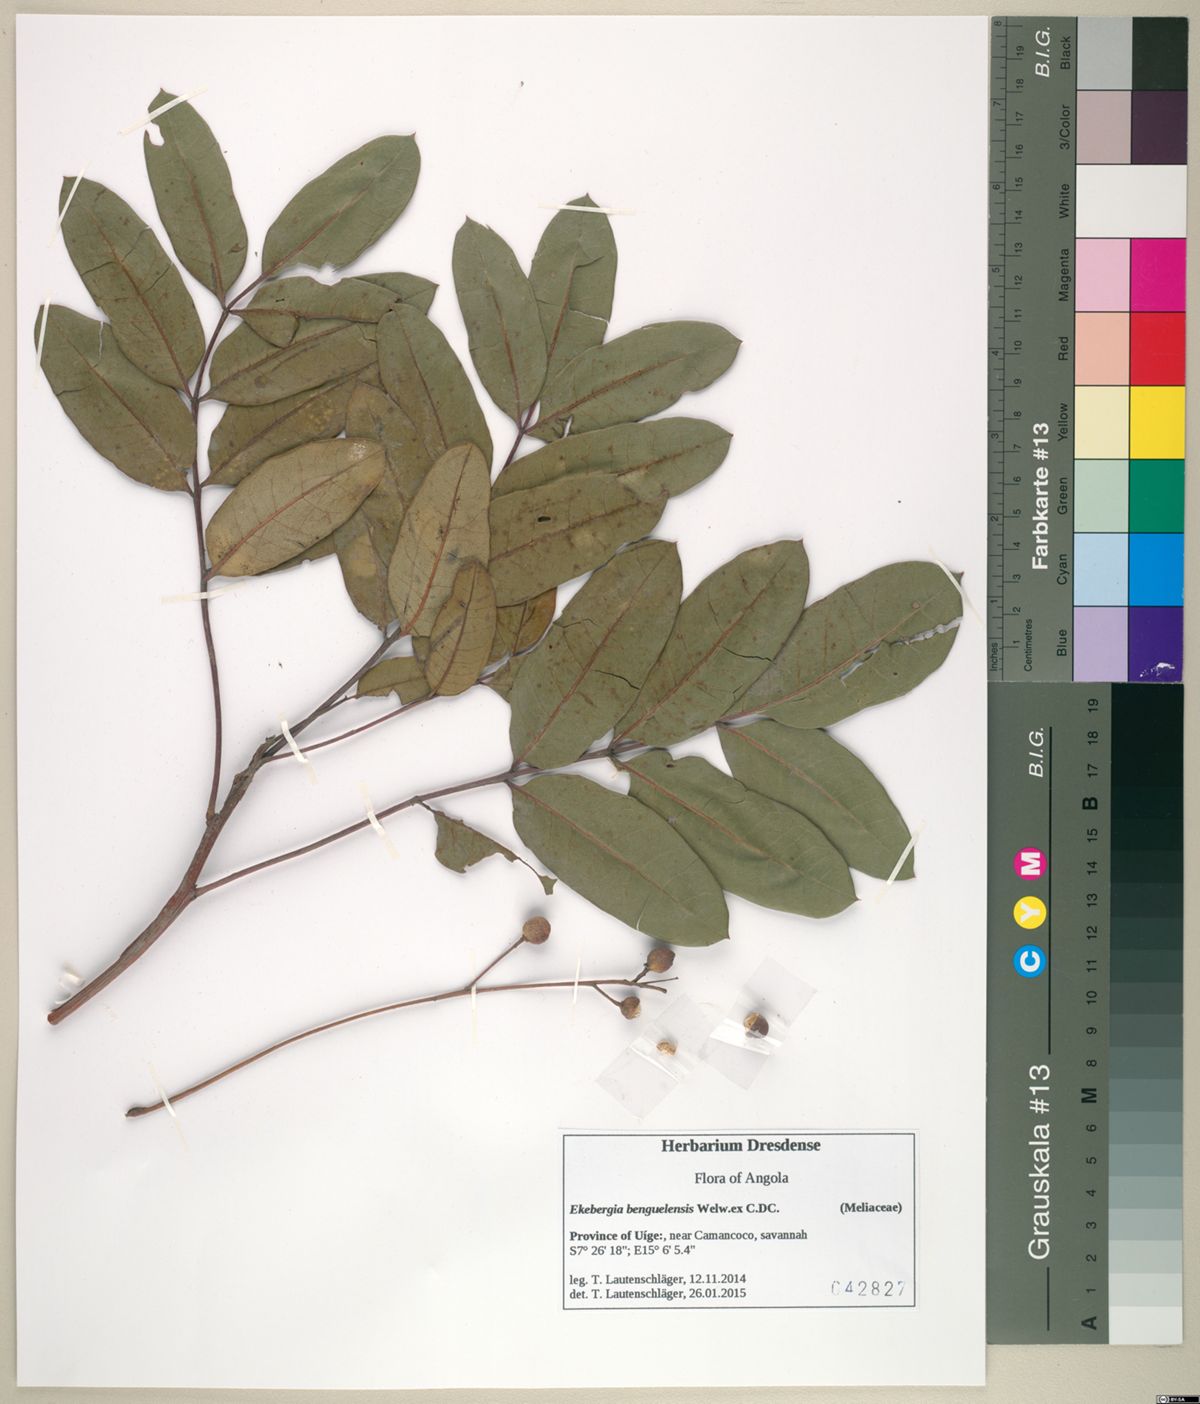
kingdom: Plantae
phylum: Tracheophyta
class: Magnoliopsida
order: Sapindales
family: Meliaceae
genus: Ekebergia
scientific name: Ekebergia benguelensis
